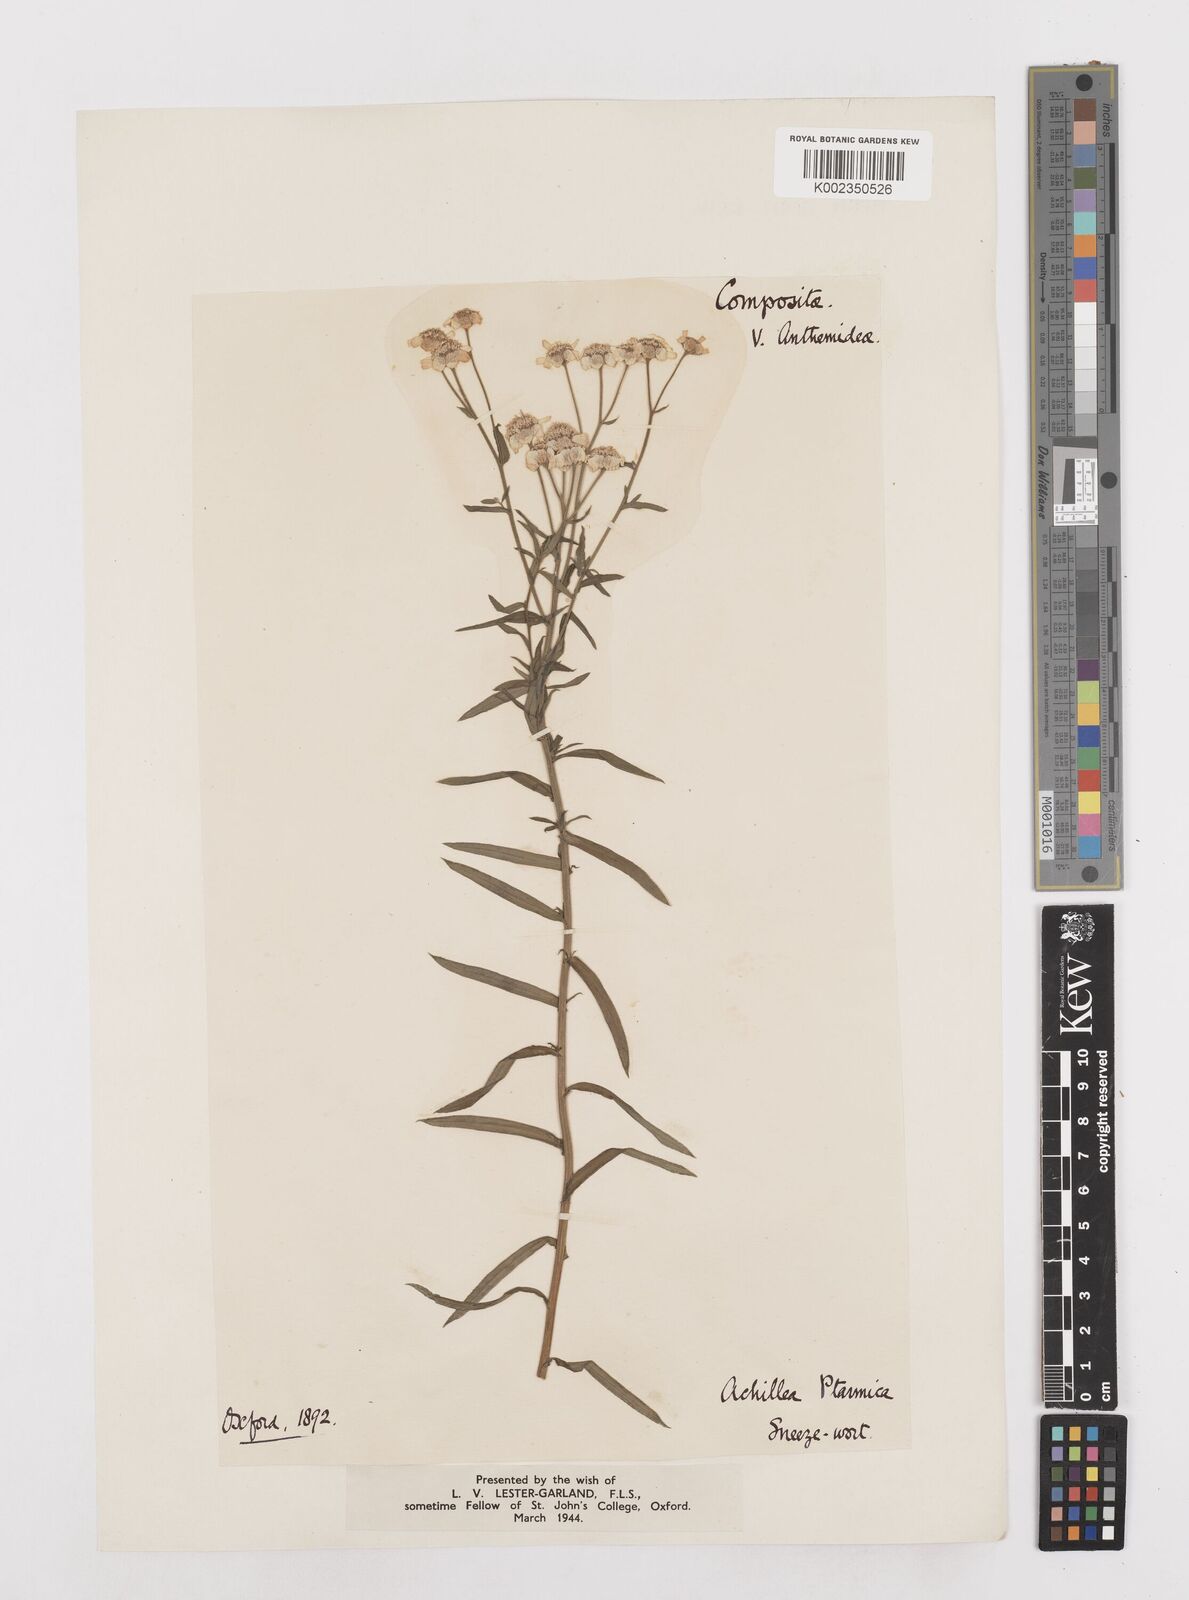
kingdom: Plantae
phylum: Tracheophyta
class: Magnoliopsida
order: Asterales
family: Asteraceae
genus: Achillea
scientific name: Achillea ptarmica
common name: Sneezeweed
